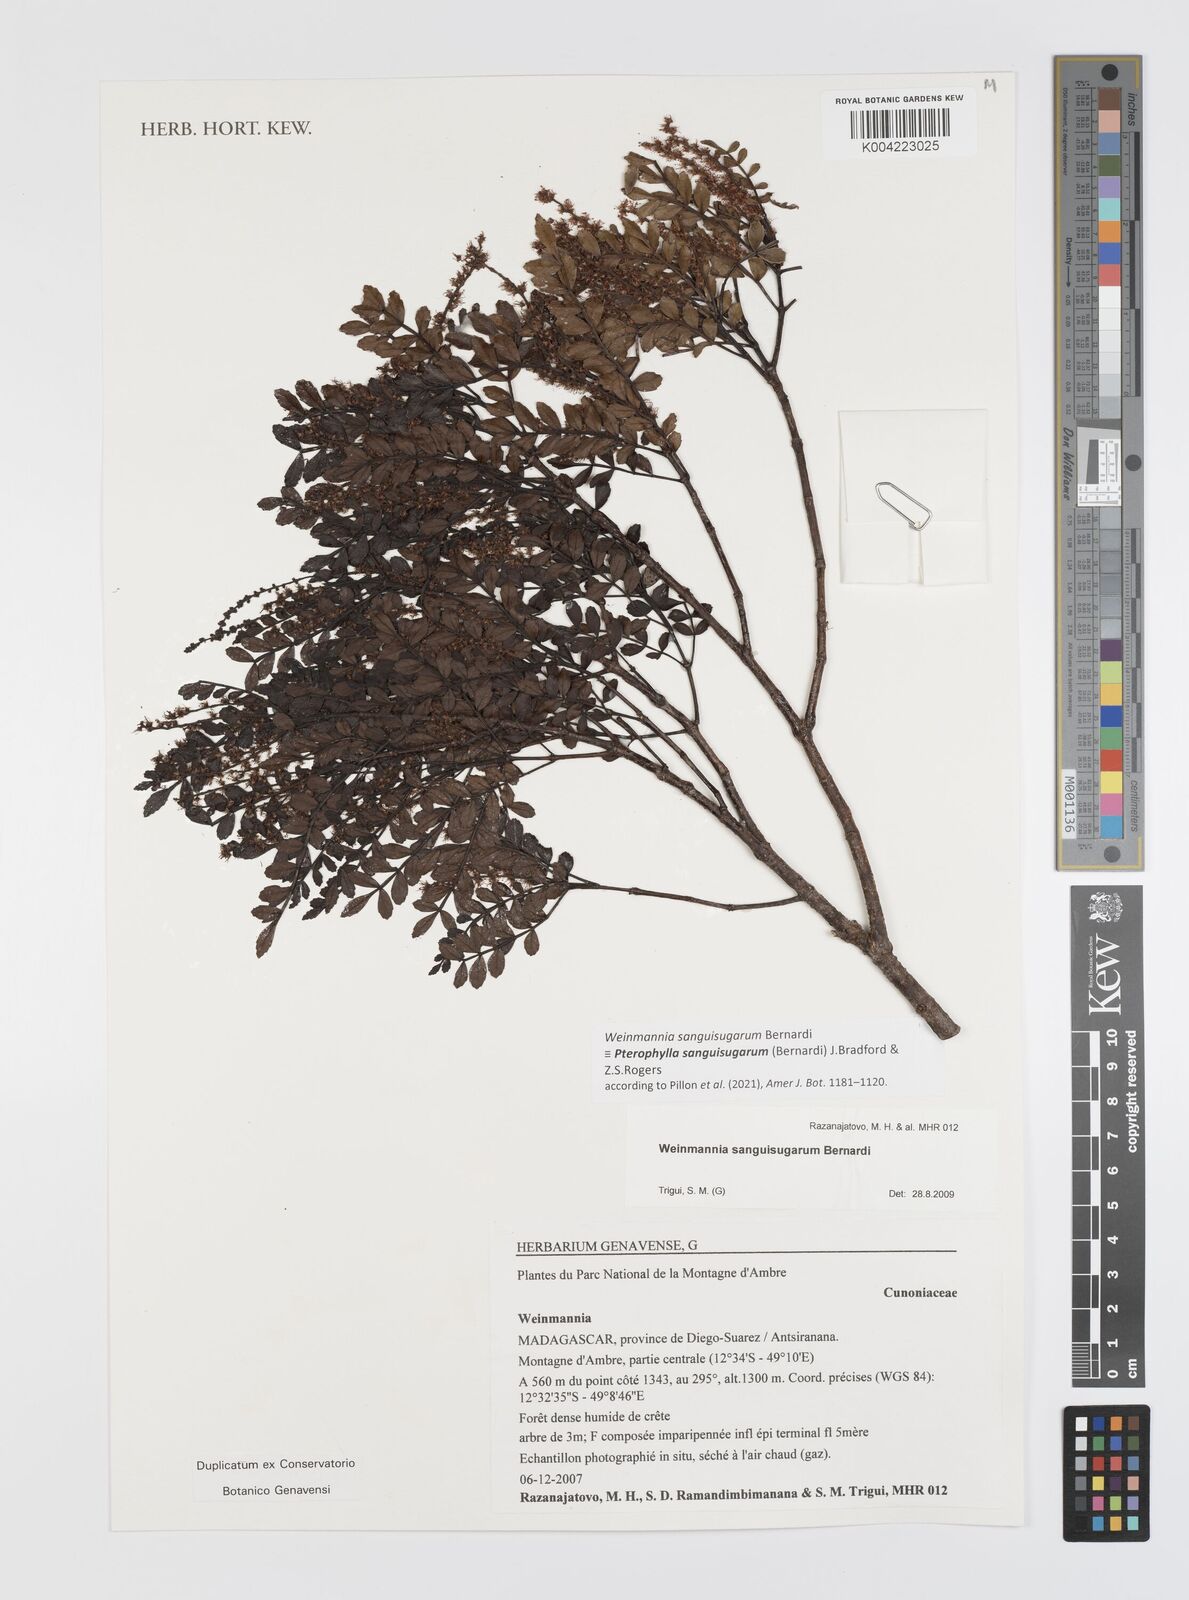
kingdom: Plantae
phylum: Tracheophyta
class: Magnoliopsida
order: Oxalidales
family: Cunoniaceae
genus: Pterophylla
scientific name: Pterophylla sanguisugarum
